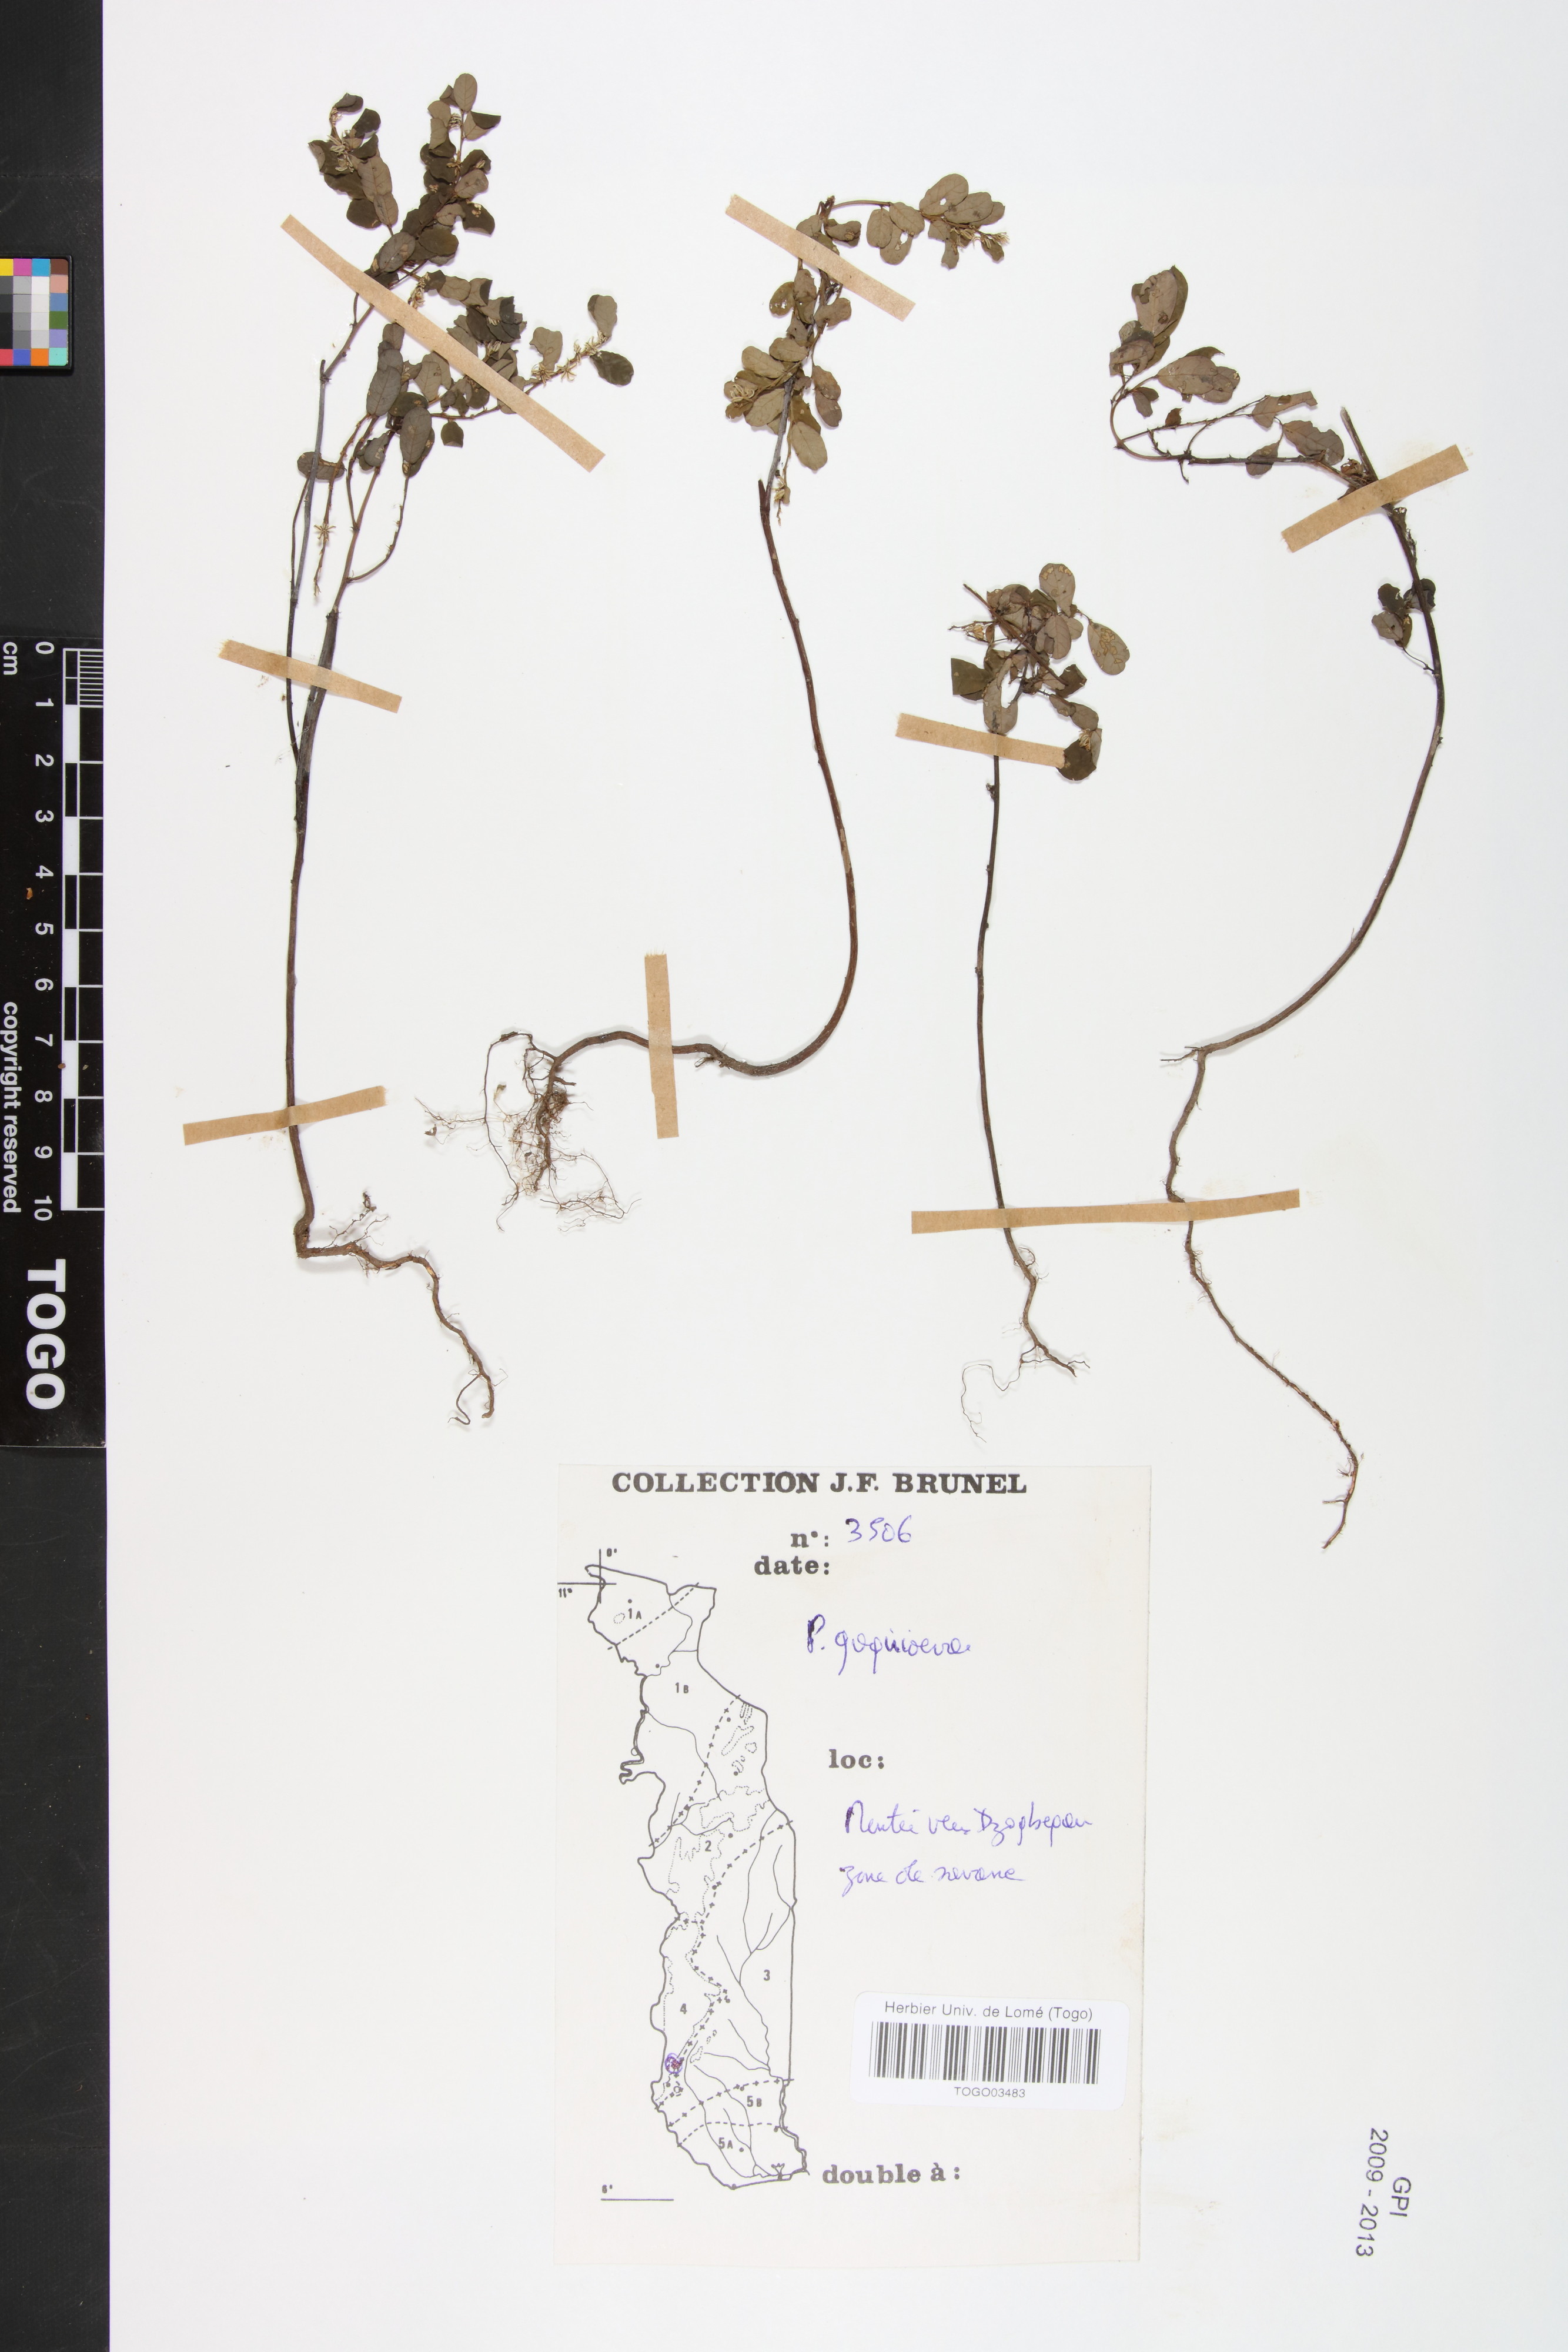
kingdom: Plantae
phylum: Tracheophyta
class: Magnoliopsida
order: Malpighiales
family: Phyllanthaceae
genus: Phyllanthus
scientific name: Phyllanthus gagnioevae
